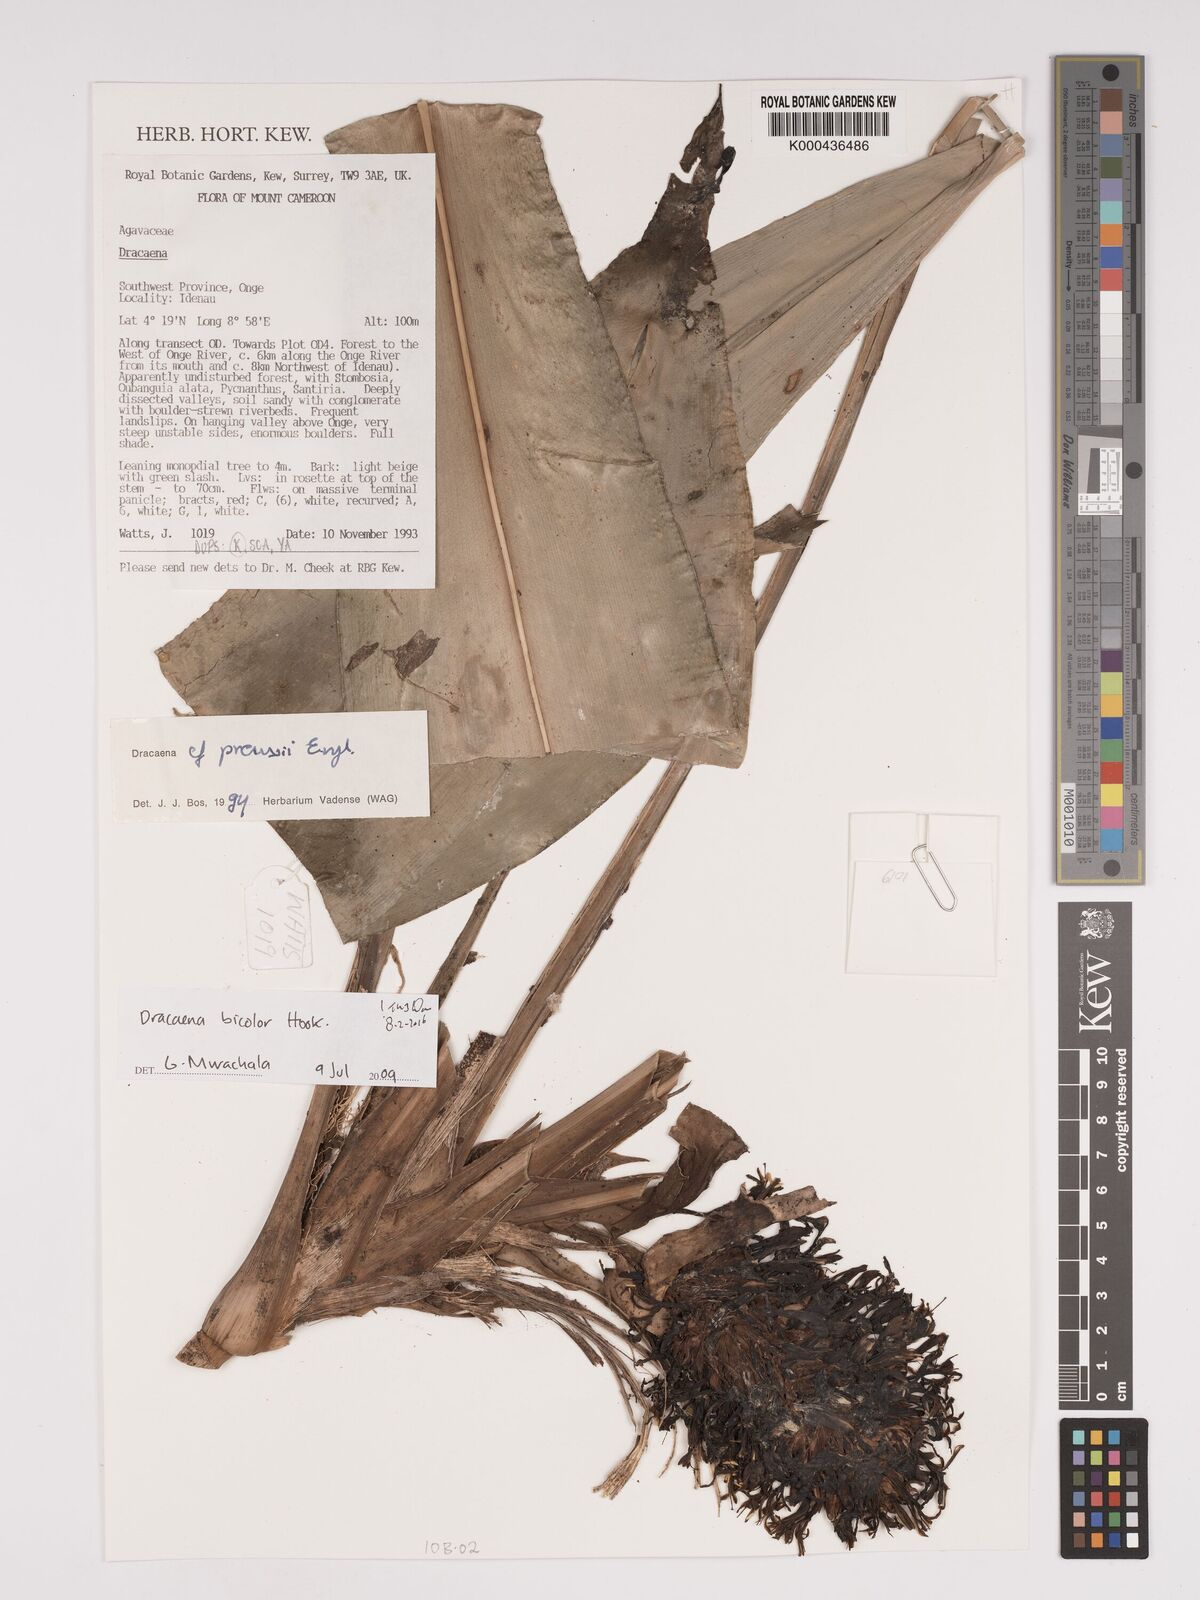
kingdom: Plantae
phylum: Tracheophyta
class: Liliopsida
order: Asparagales
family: Asparagaceae
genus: Dracaena
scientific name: Dracaena bicolor
